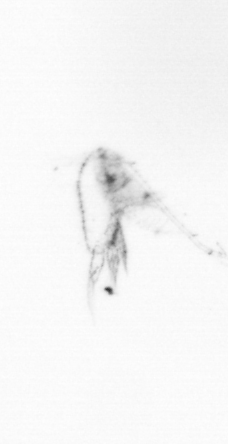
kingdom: Chromista
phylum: Ochrophyta
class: Bacillariophyceae
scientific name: Bacillariophyceae
